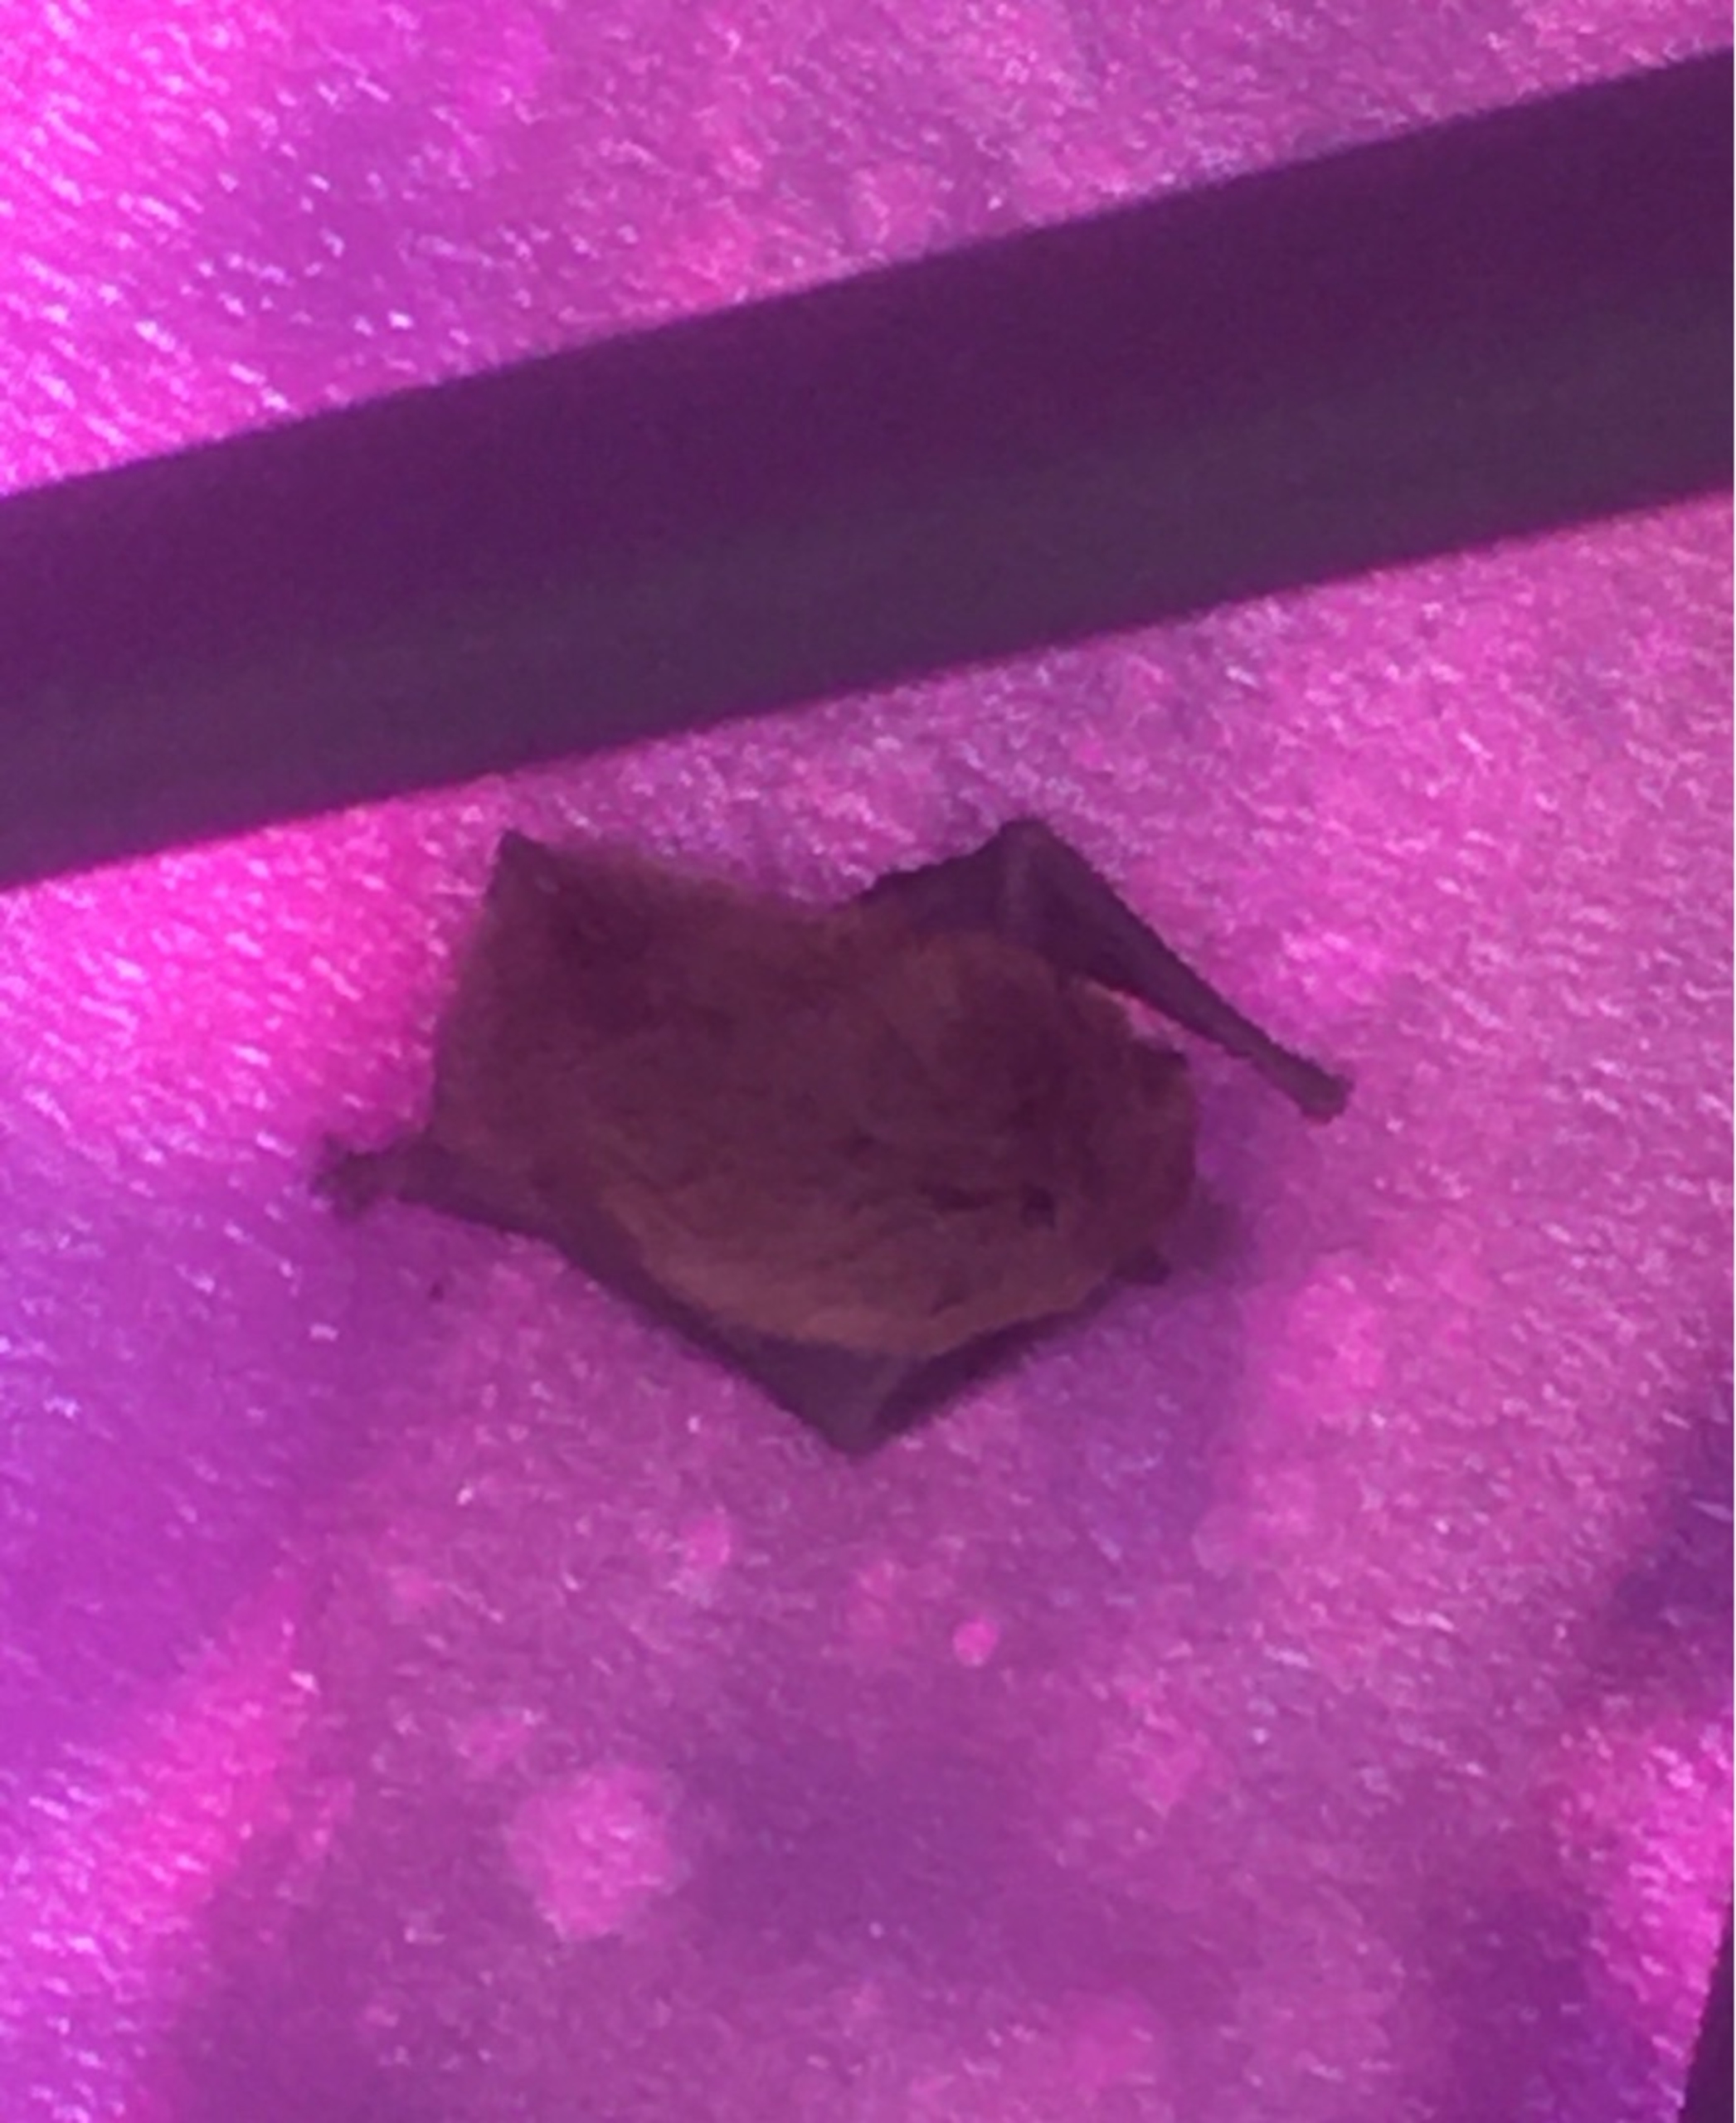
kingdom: Animalia
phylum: Chordata
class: Mammalia
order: Chiroptera
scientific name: Chiroptera
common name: Flagermus
